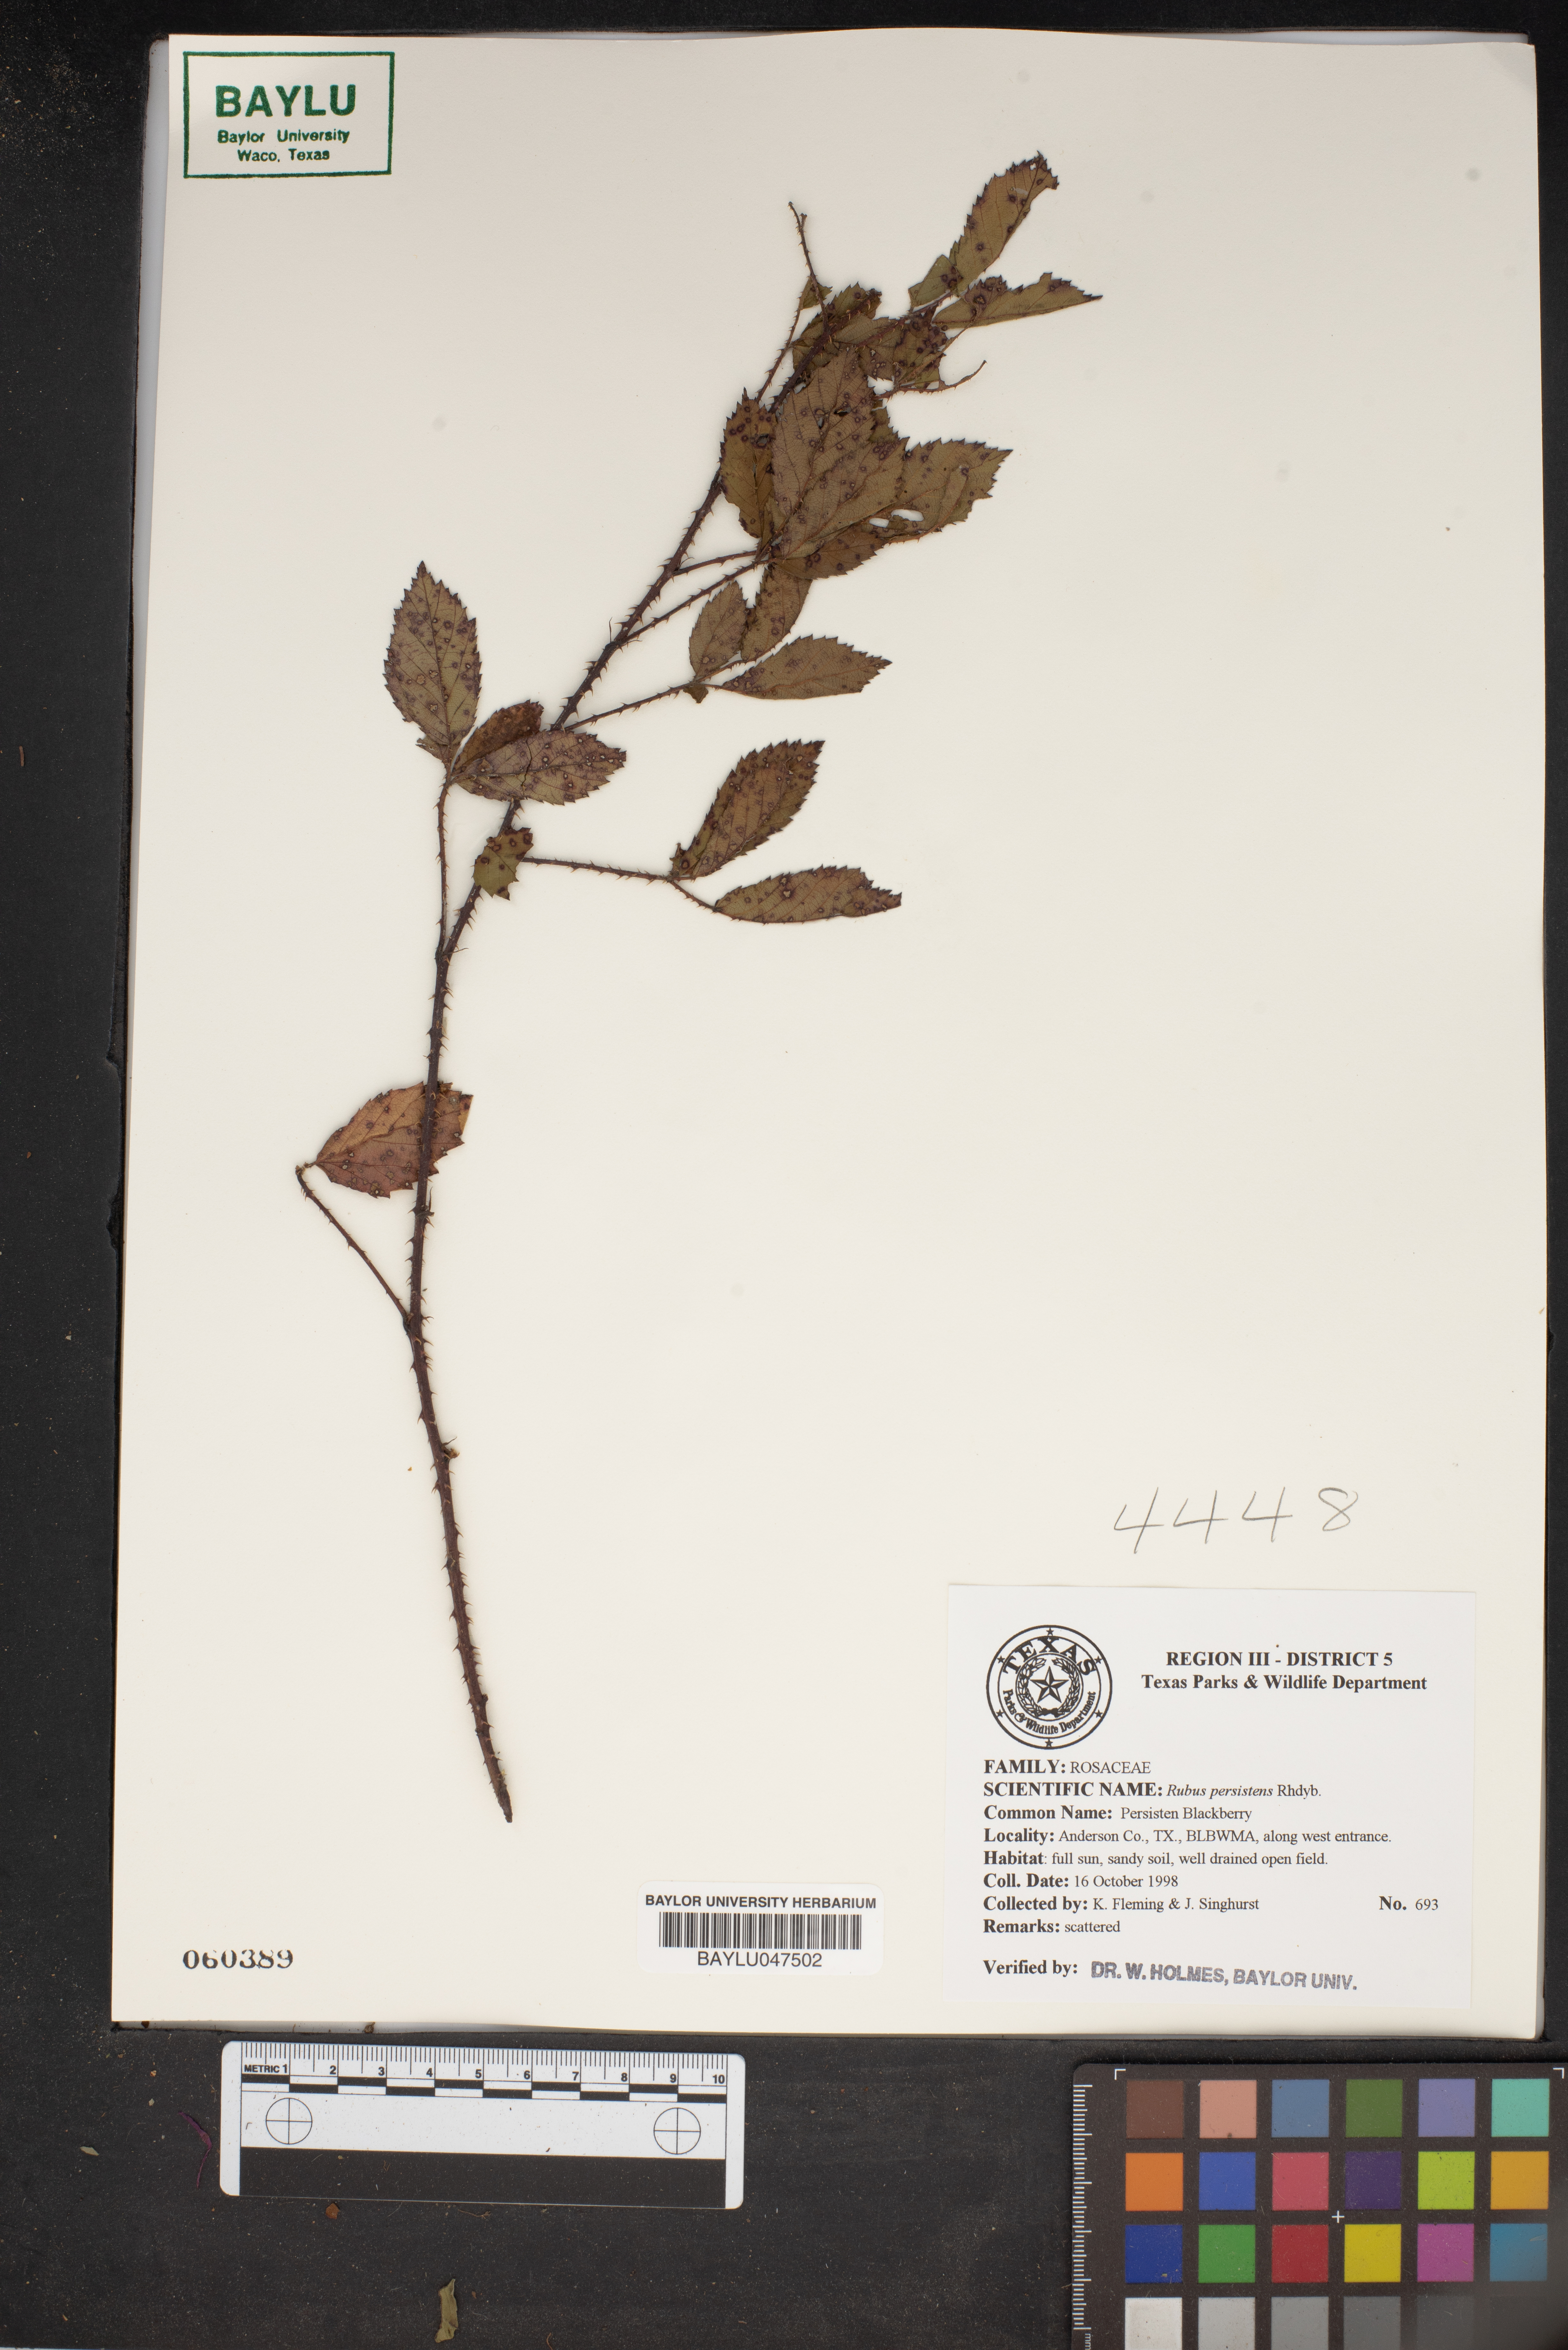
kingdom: Plantae
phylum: Tracheophyta
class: Magnoliopsida
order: Rosales
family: Rosaceae
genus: Rubus
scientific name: Rubus persistens
